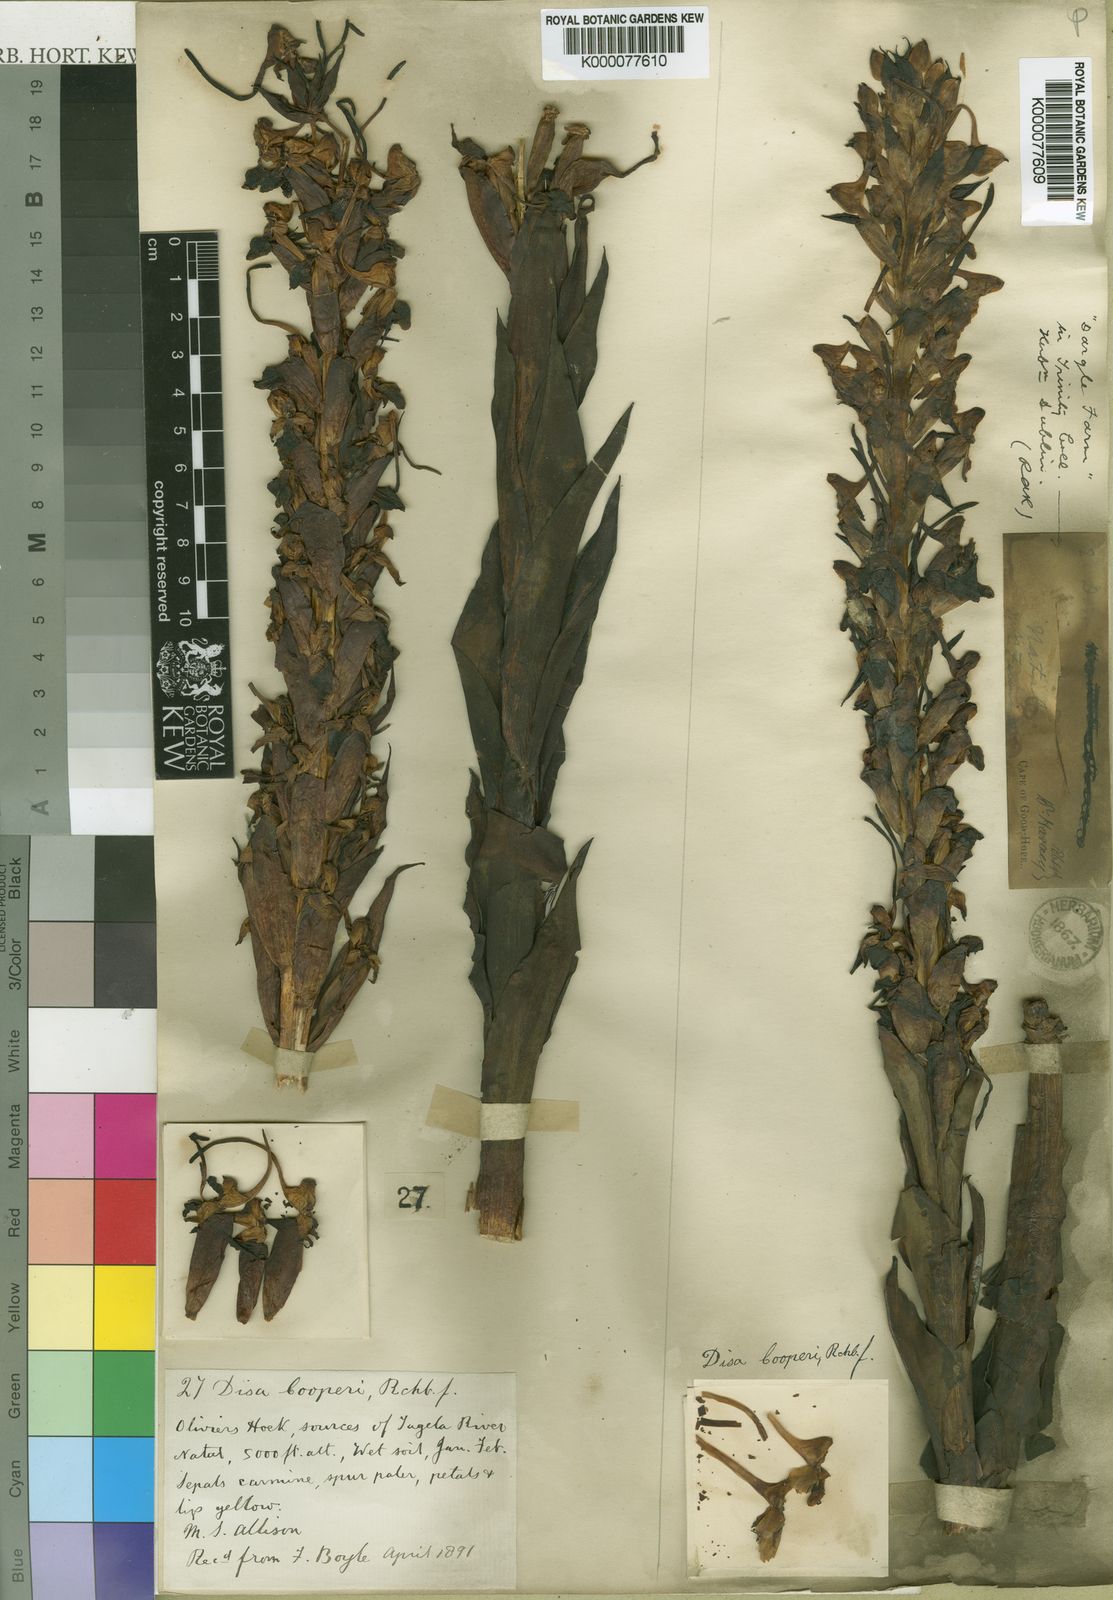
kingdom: Plantae
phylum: Tracheophyta
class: Liliopsida
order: Asparagales
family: Orchidaceae
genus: Disa
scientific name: Disa cooperi
